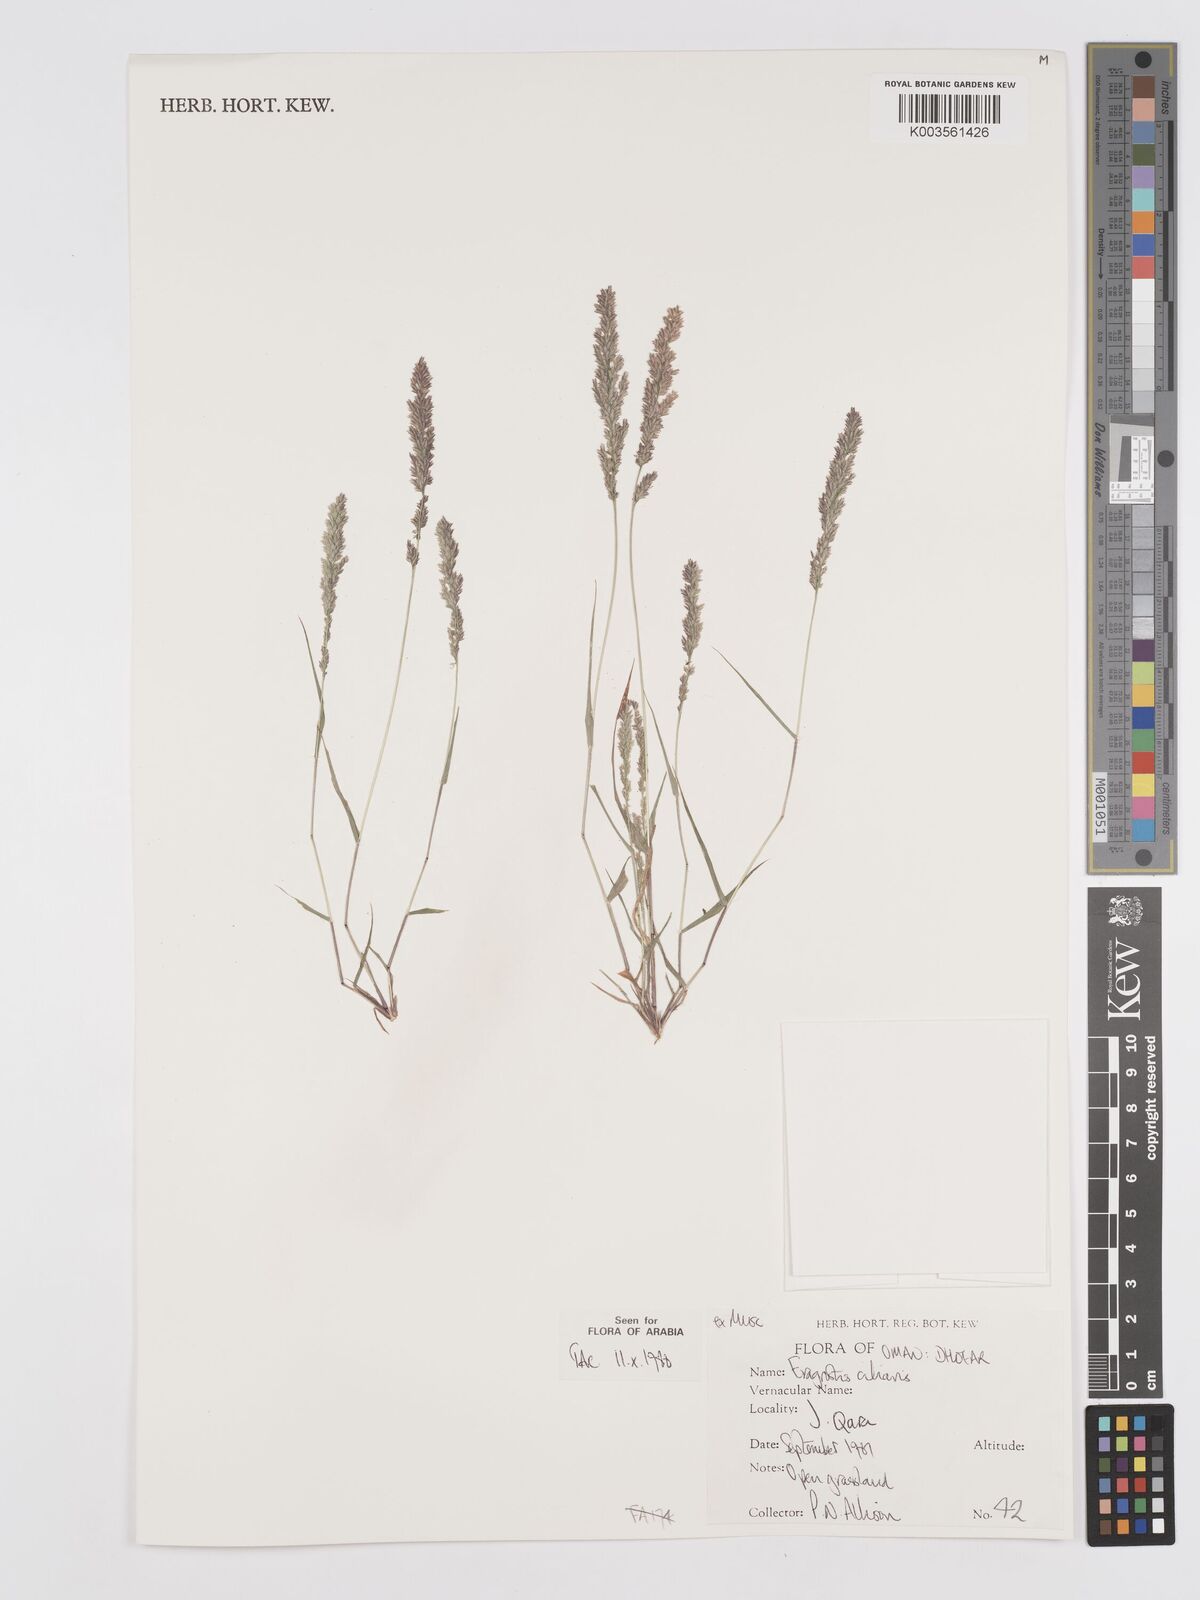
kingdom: Plantae
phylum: Tracheophyta
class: Liliopsida
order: Poales
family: Poaceae
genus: Eragrostis
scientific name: Eragrostis ciliaris
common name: Gophertail lovegrass
